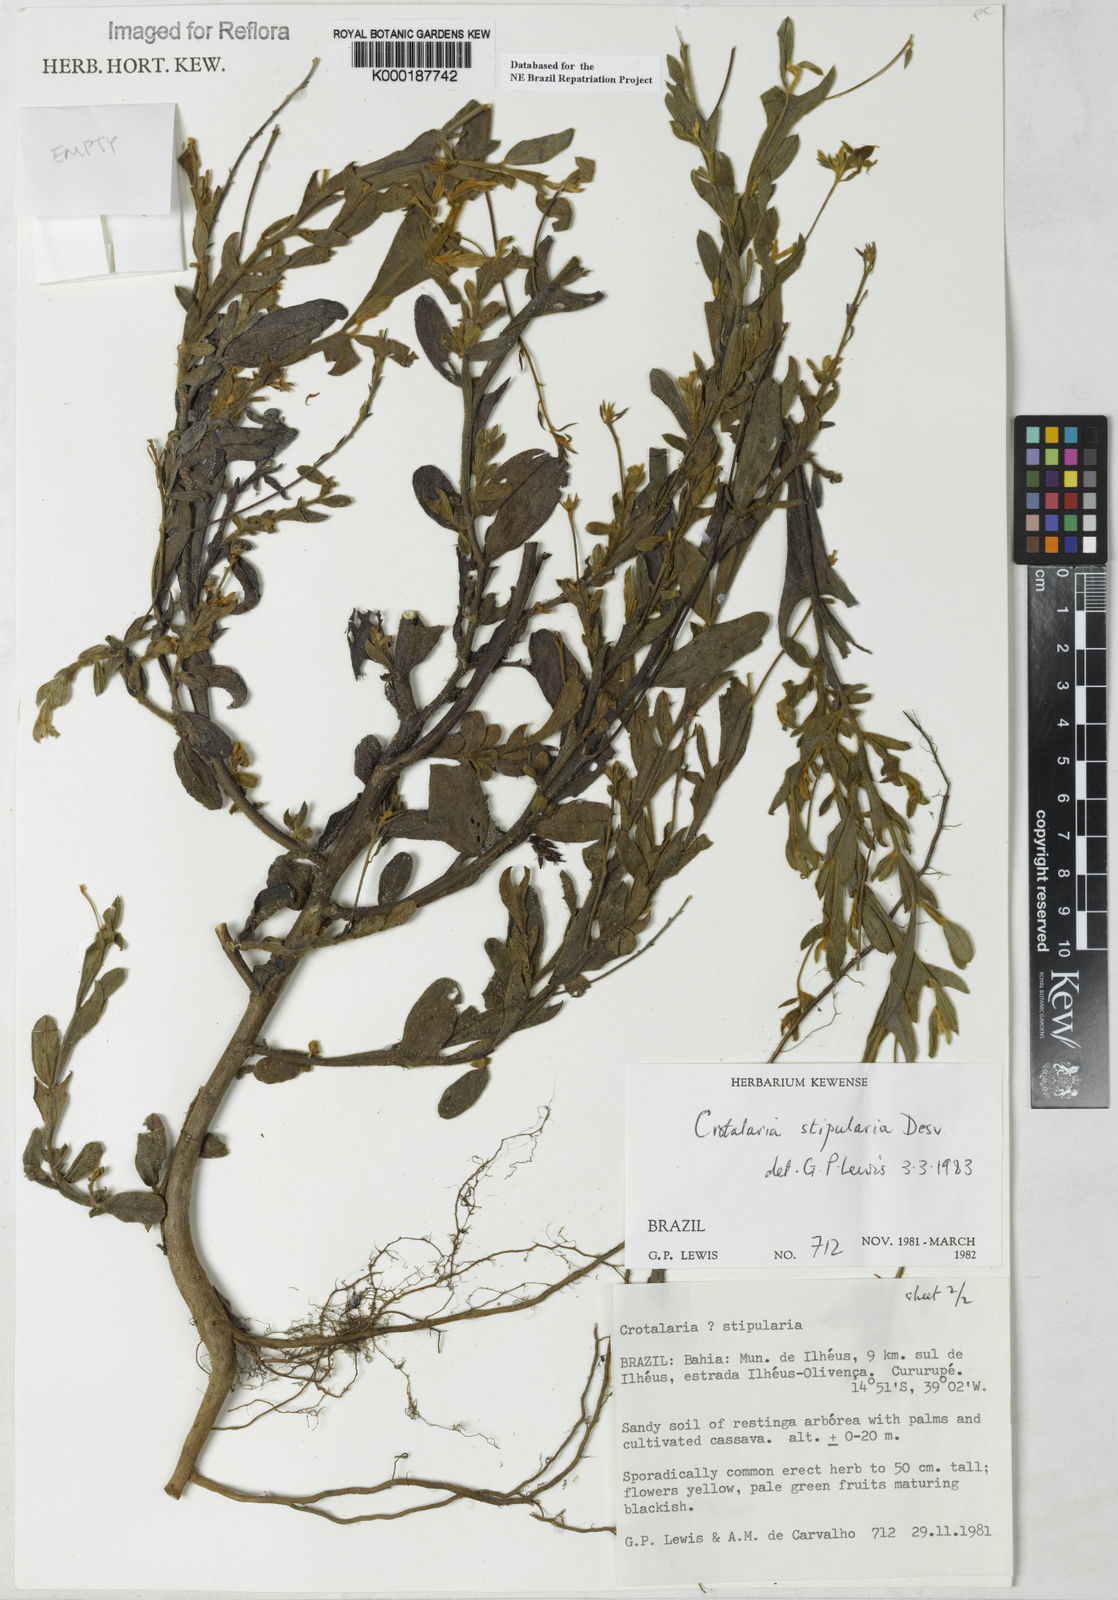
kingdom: Plantae
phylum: Tracheophyta
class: Magnoliopsida
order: Fabales
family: Fabaceae
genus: Crotalaria
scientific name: Crotalaria stipularia
